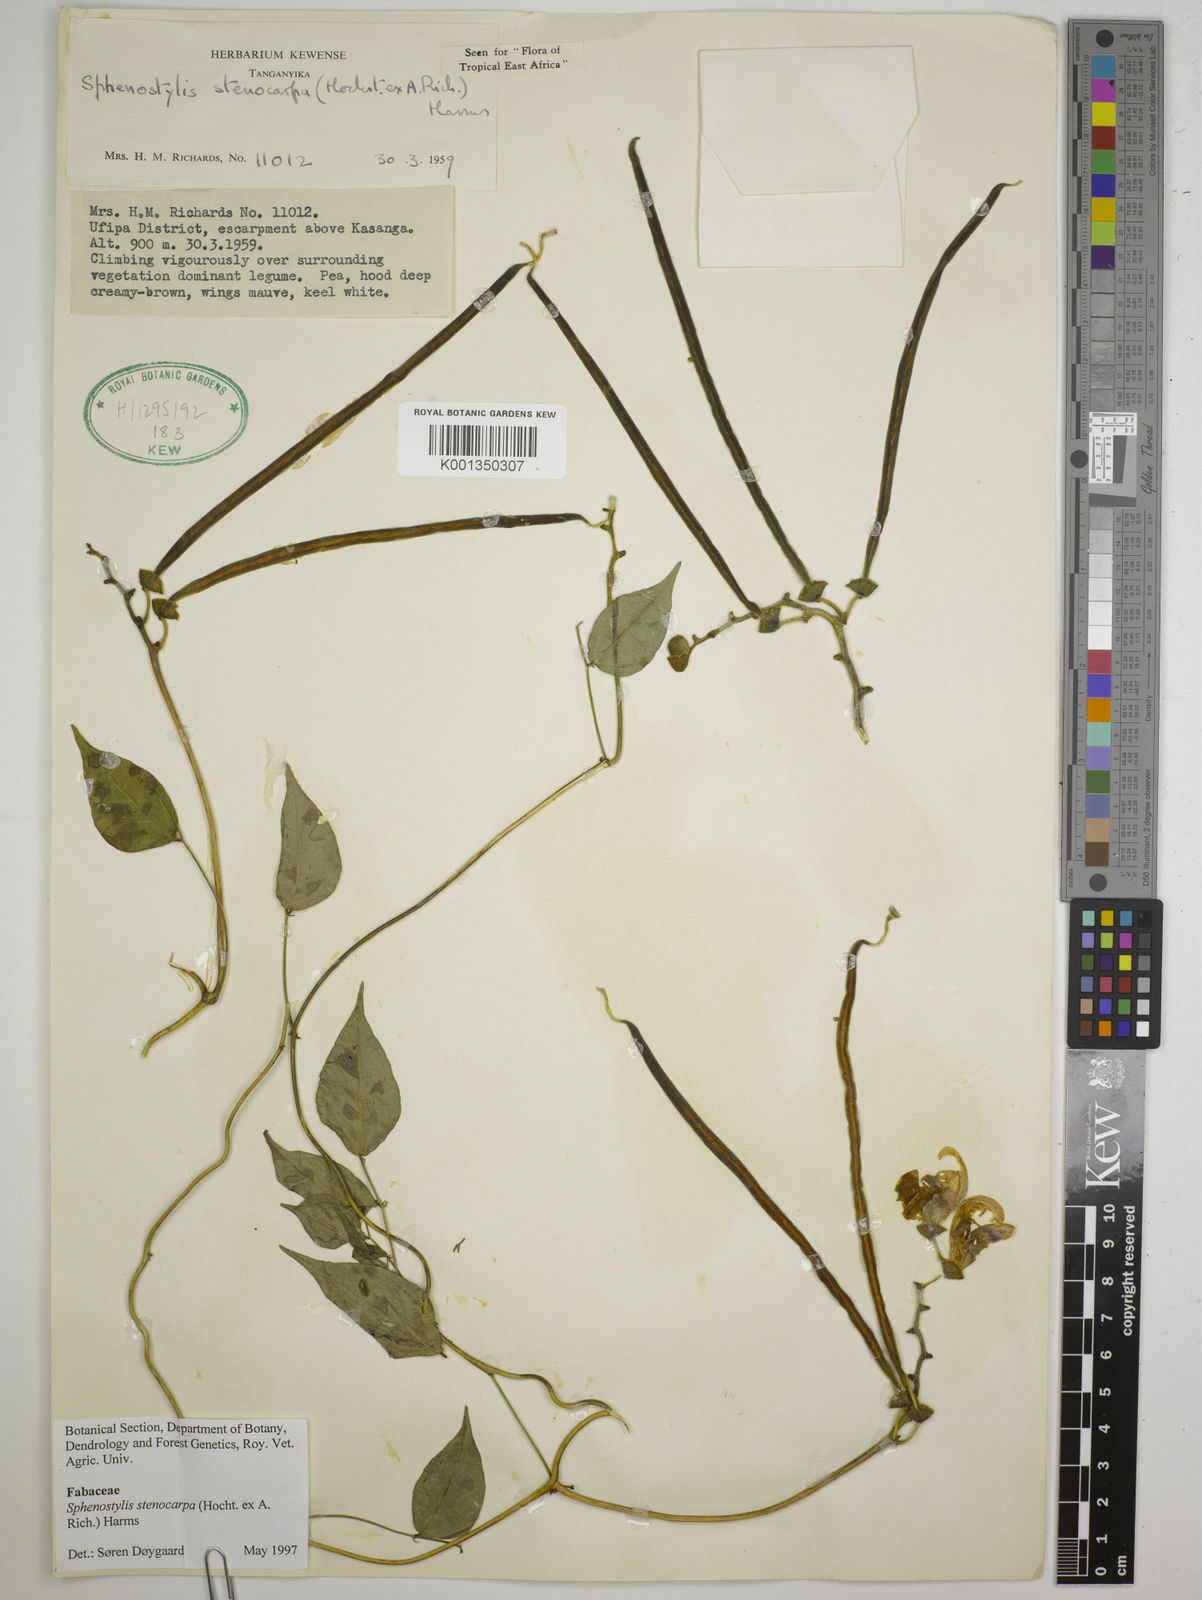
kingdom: Plantae
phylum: Tracheophyta
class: Magnoliopsida
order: Fabales
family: Fabaceae
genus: Sphenostylis
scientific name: Sphenostylis stenocarpa
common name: Yam-pea
